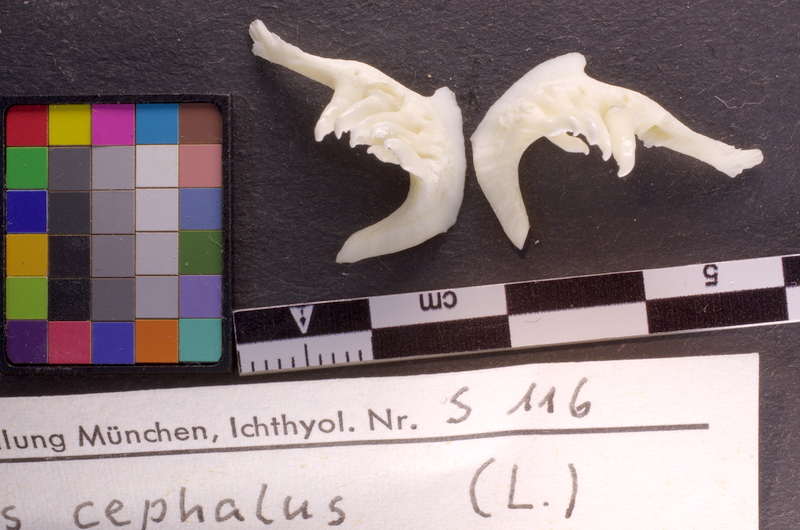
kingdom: Animalia
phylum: Chordata
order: Cypriniformes
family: Cyprinidae
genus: Squalius
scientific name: Squalius cephalus
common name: Chub
